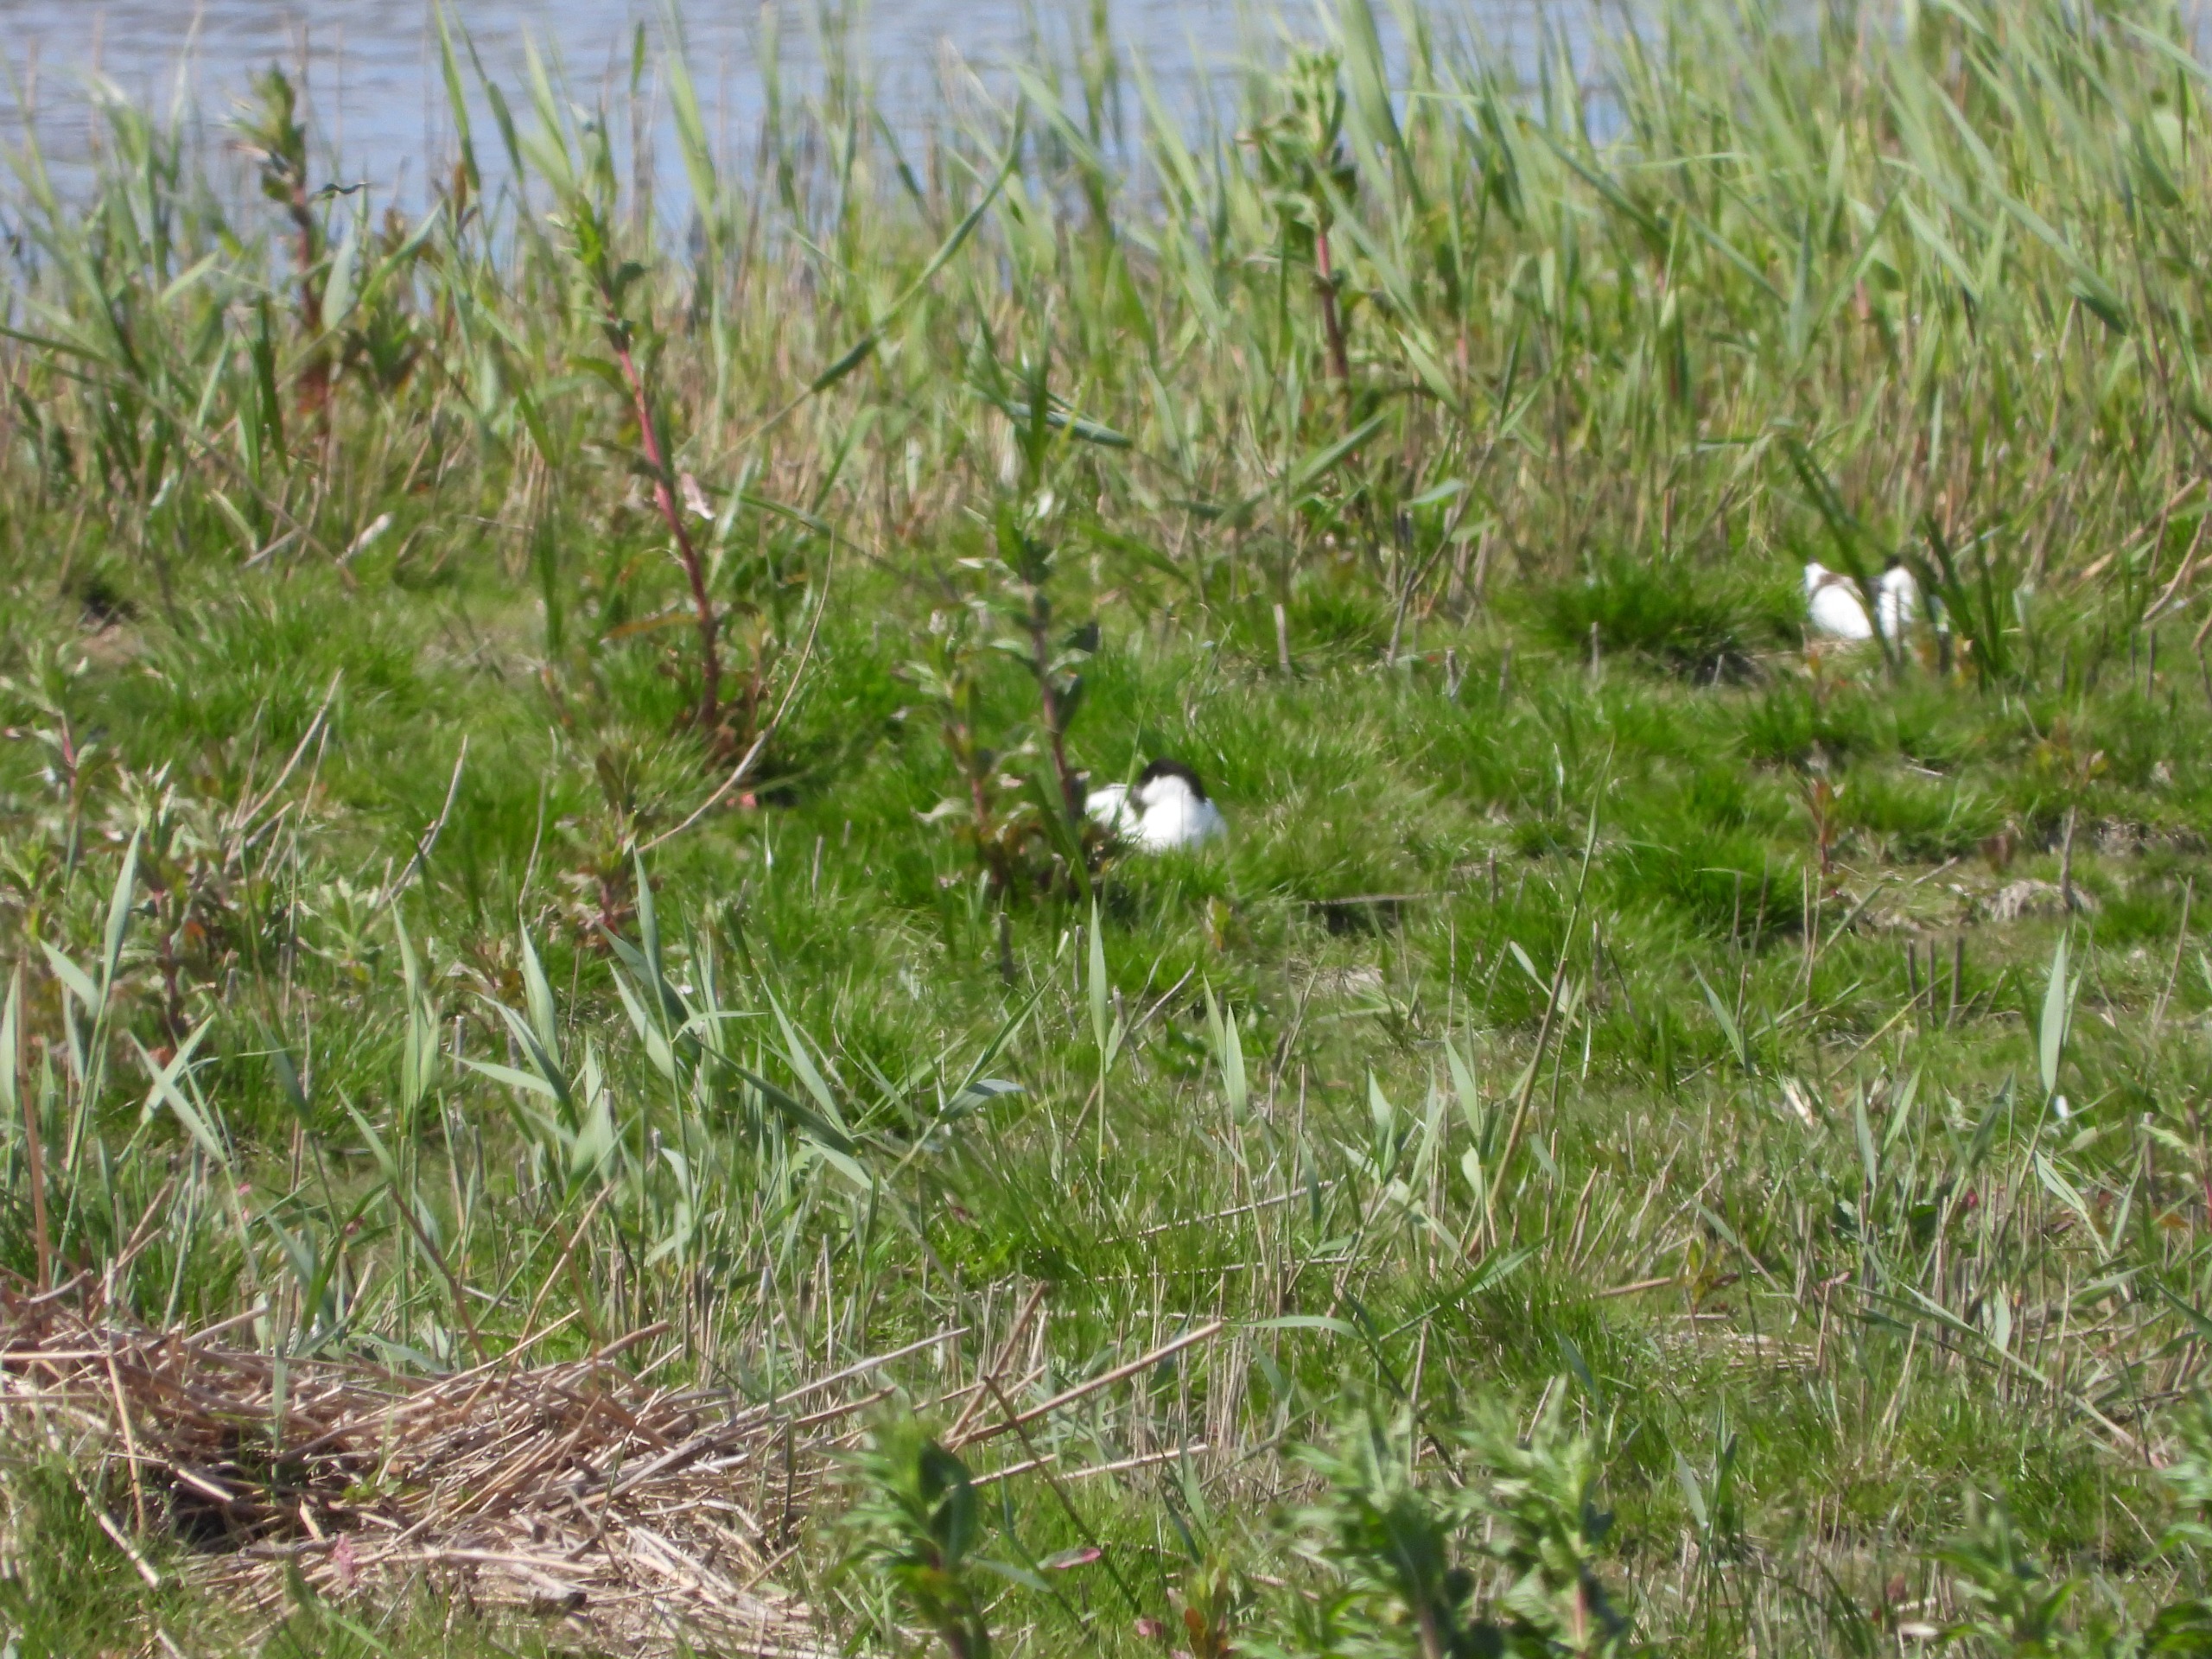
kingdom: Animalia
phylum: Chordata
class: Aves
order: Charadriiformes
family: Recurvirostridae
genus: Recurvirostra
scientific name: Recurvirostra avosetta
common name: Klyde
